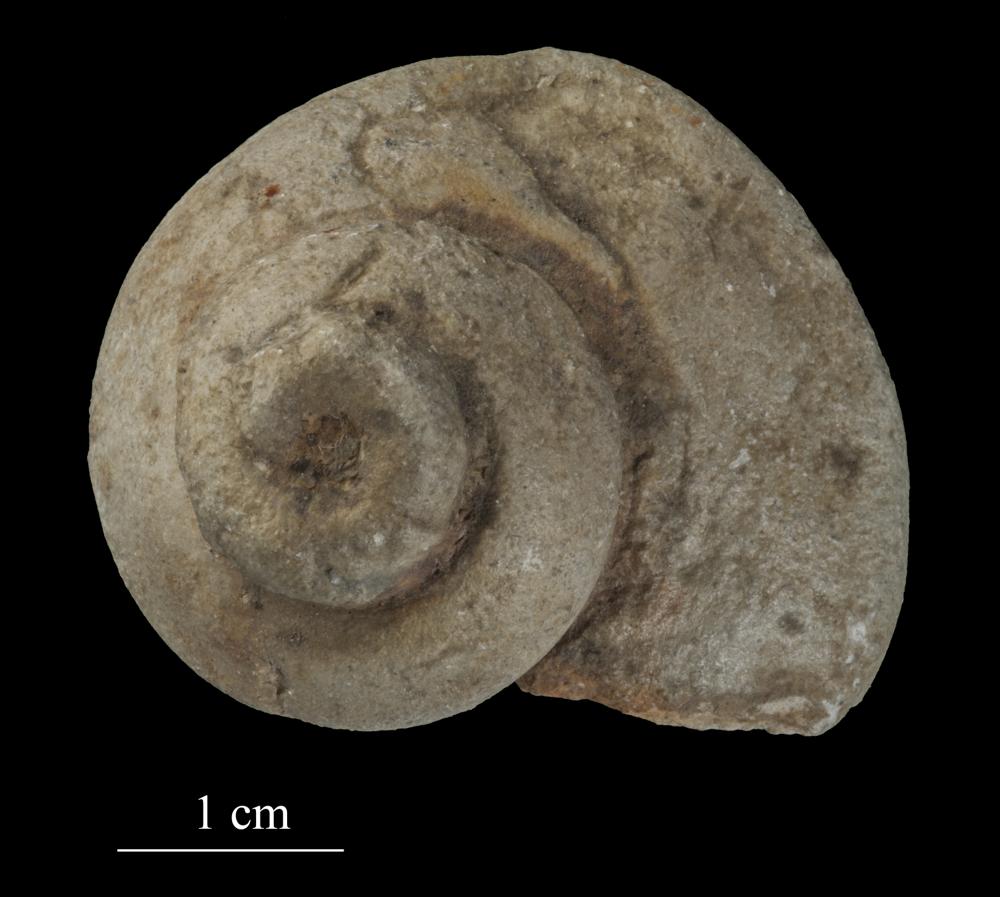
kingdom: Animalia
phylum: Mollusca
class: Gastropoda
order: Pleurotomariida
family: Phymatopleuridae
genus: Worthenia
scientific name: Worthenia
